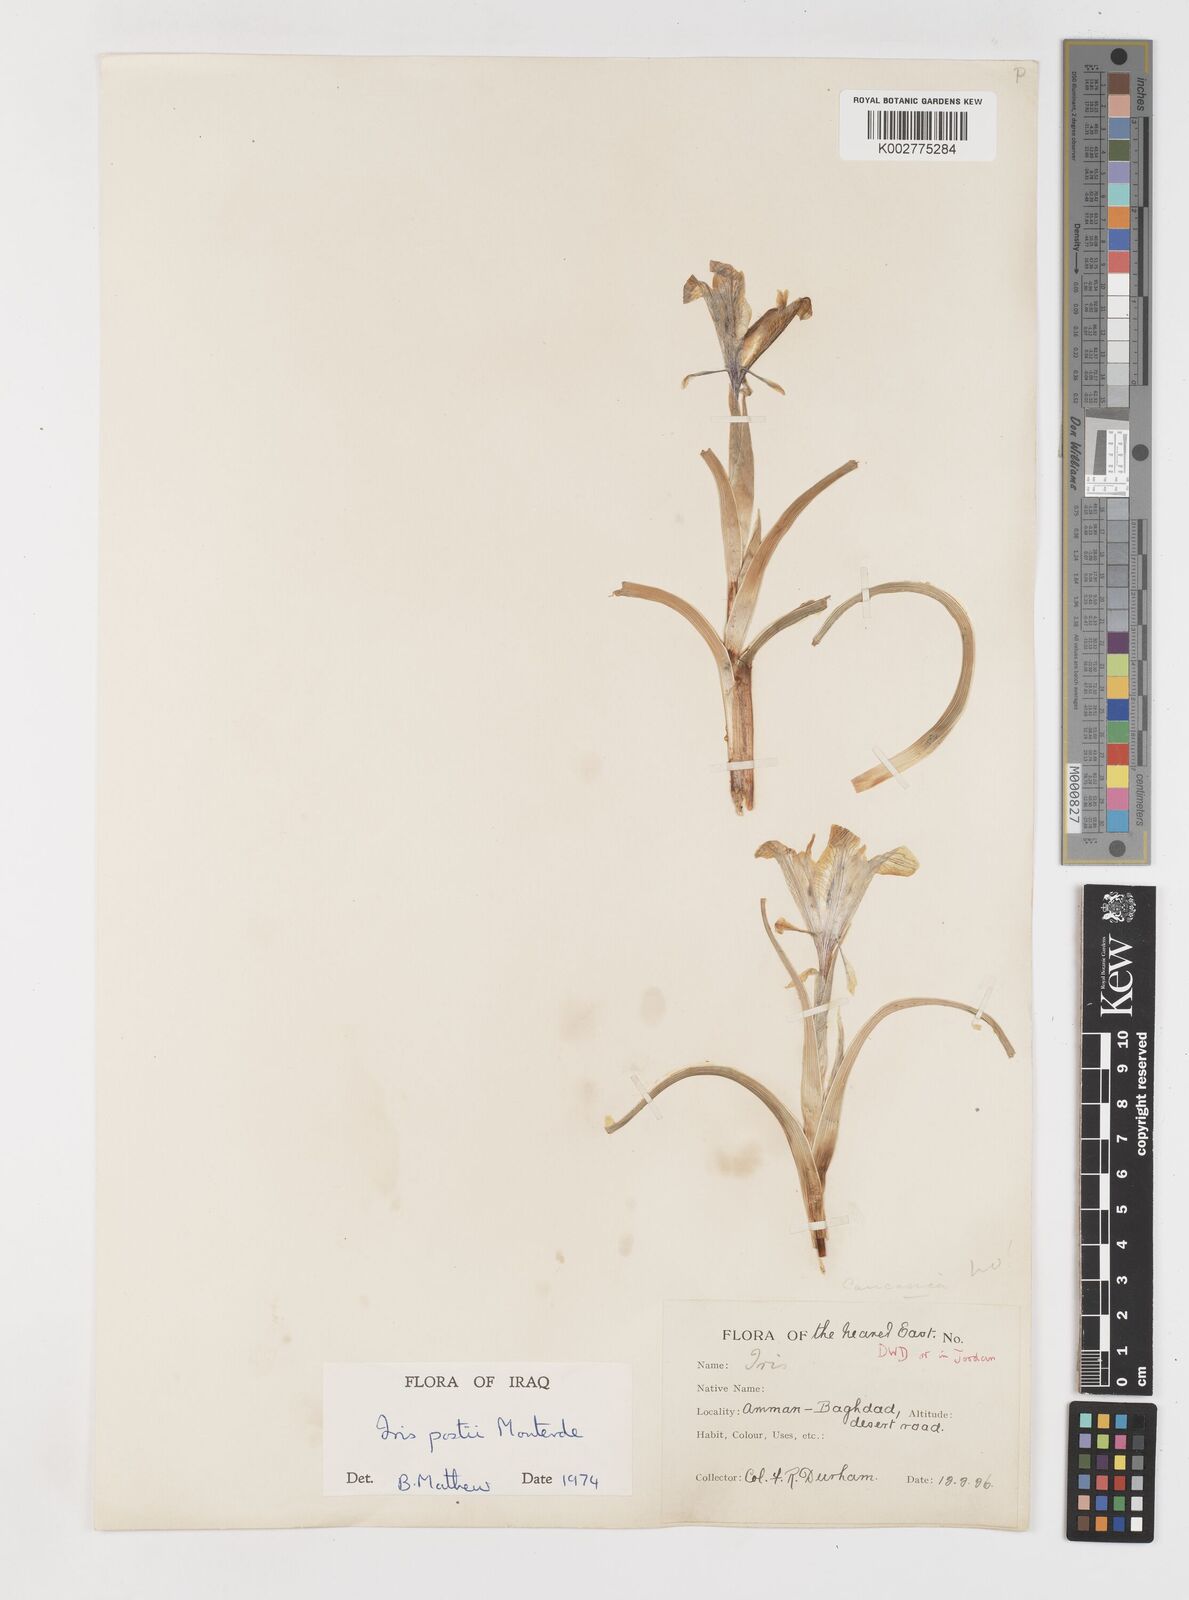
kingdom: Plantae
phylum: Tracheophyta
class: Liliopsida
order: Asparagales
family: Iridaceae
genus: Iris
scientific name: Iris postii
